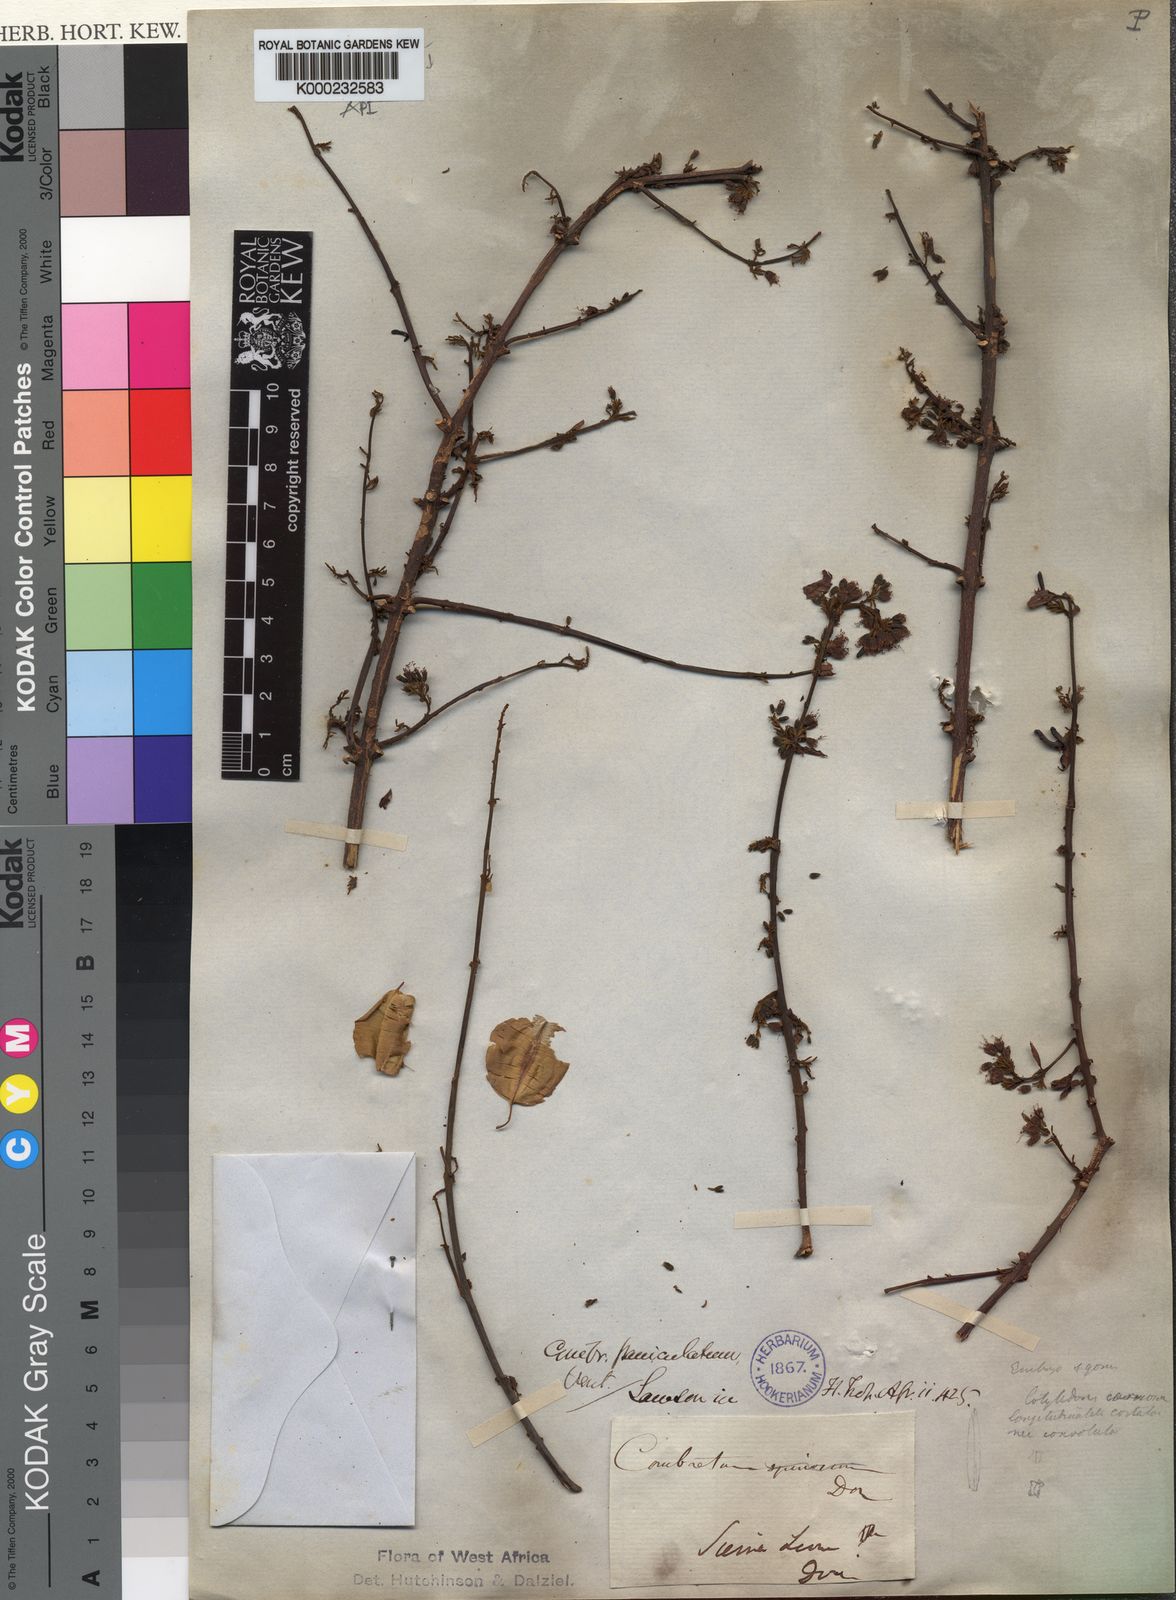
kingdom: Plantae
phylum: Tracheophyta
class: Magnoliopsida
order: Myrtales
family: Combretaceae
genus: Combretum
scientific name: Combretum paniculatum
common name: Fire vine
